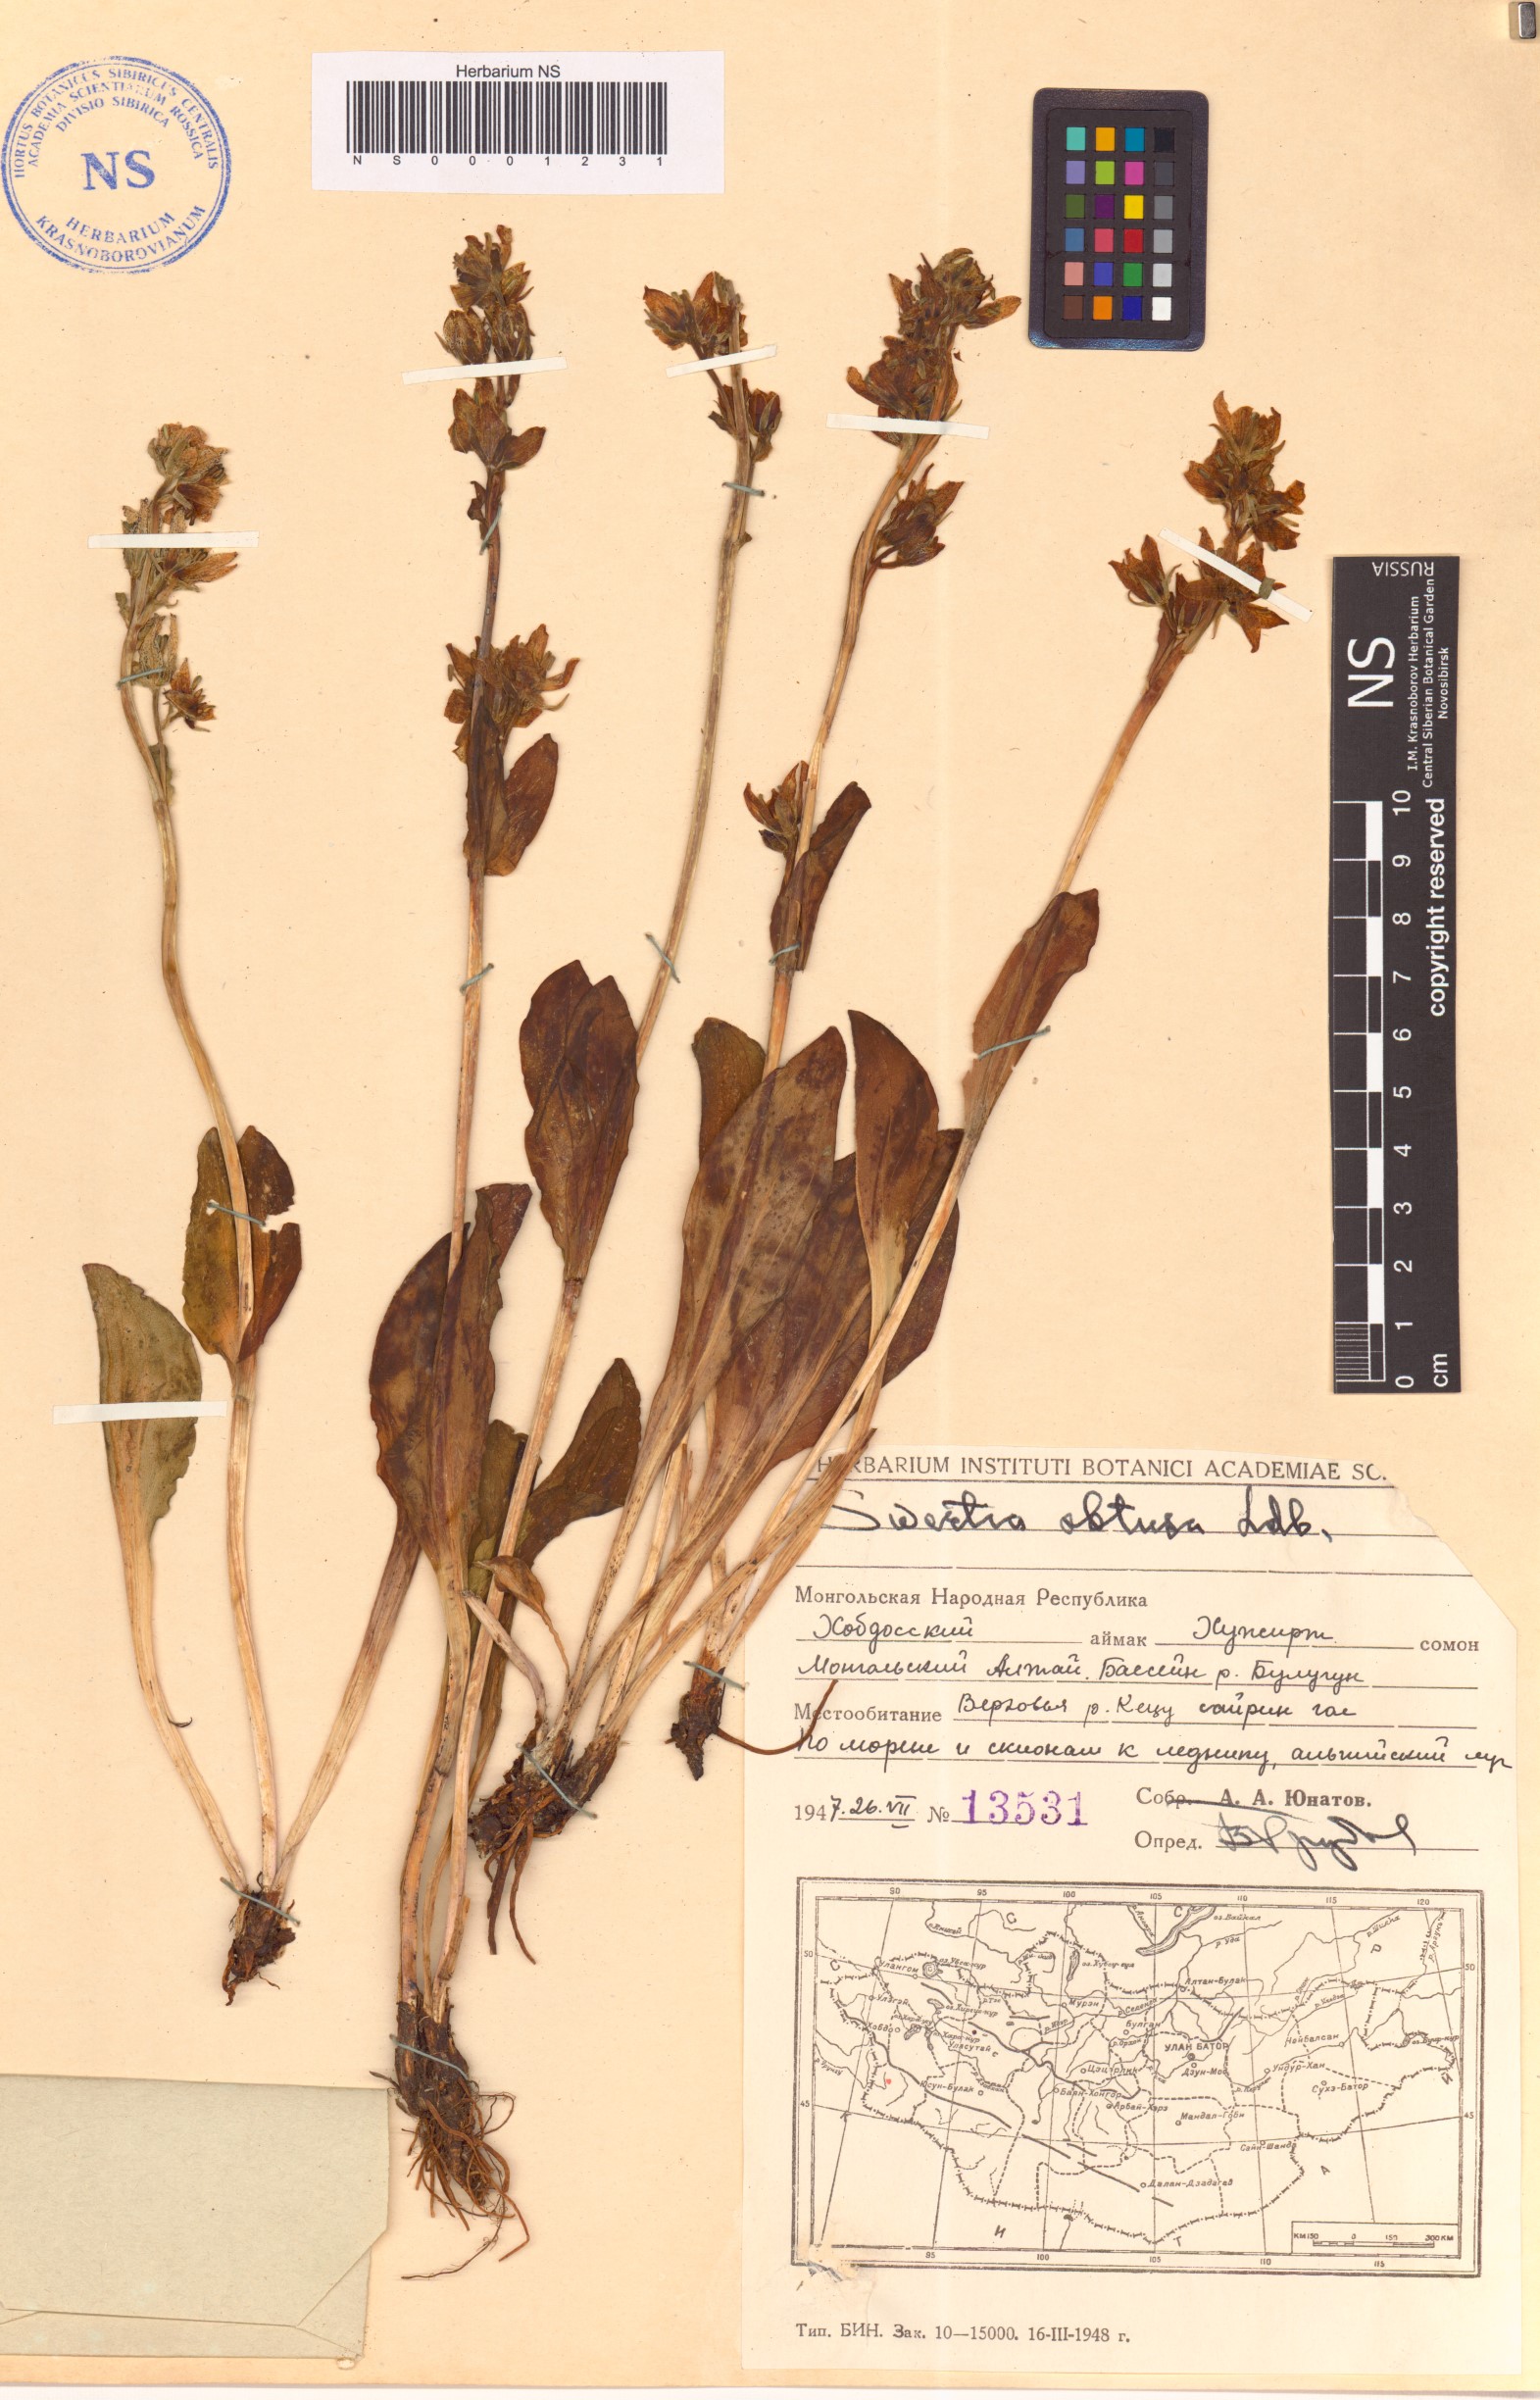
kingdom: Plantae
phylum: Tracheophyta
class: Magnoliopsida
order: Gentianales
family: Gentianaceae
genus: Swertia
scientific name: Swertia obtusa
